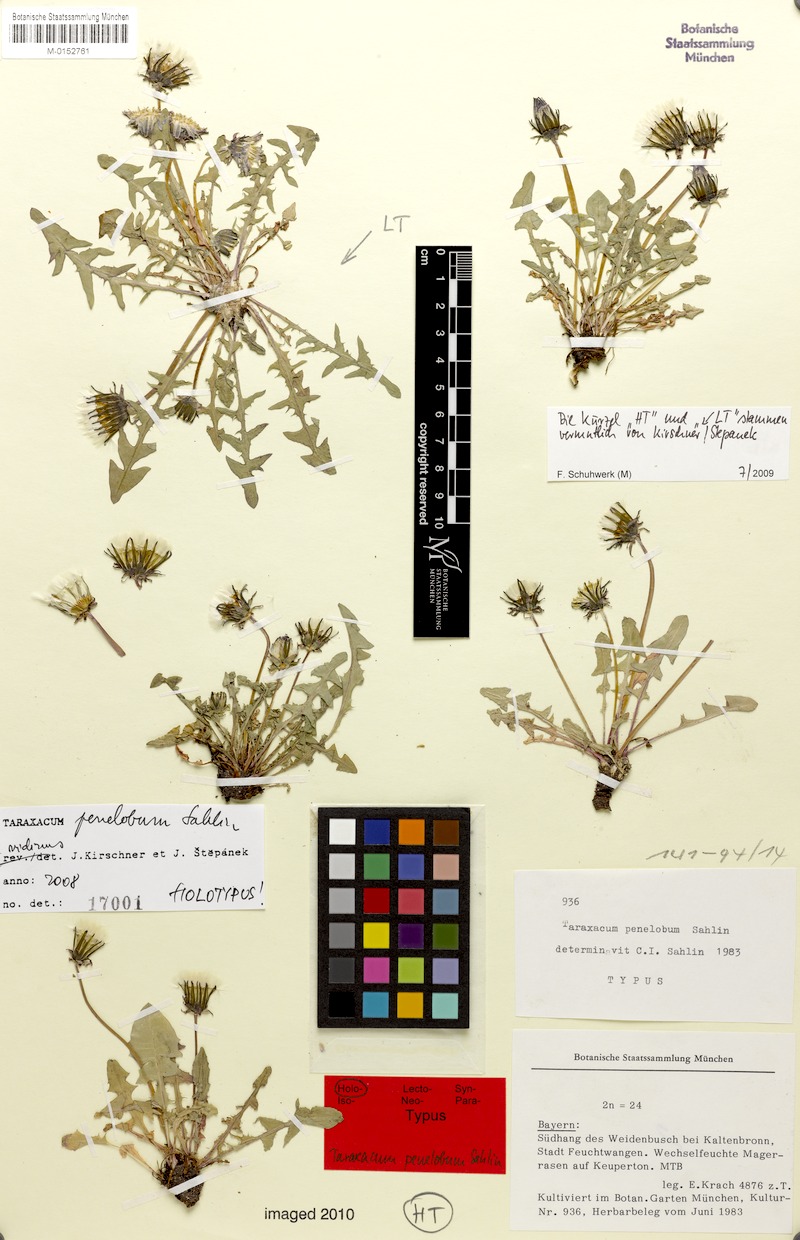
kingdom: Plantae
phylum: Tracheophyta
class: Magnoliopsida
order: Asterales
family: Asteraceae
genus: Taraxacum
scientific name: Taraxacum penelobum
